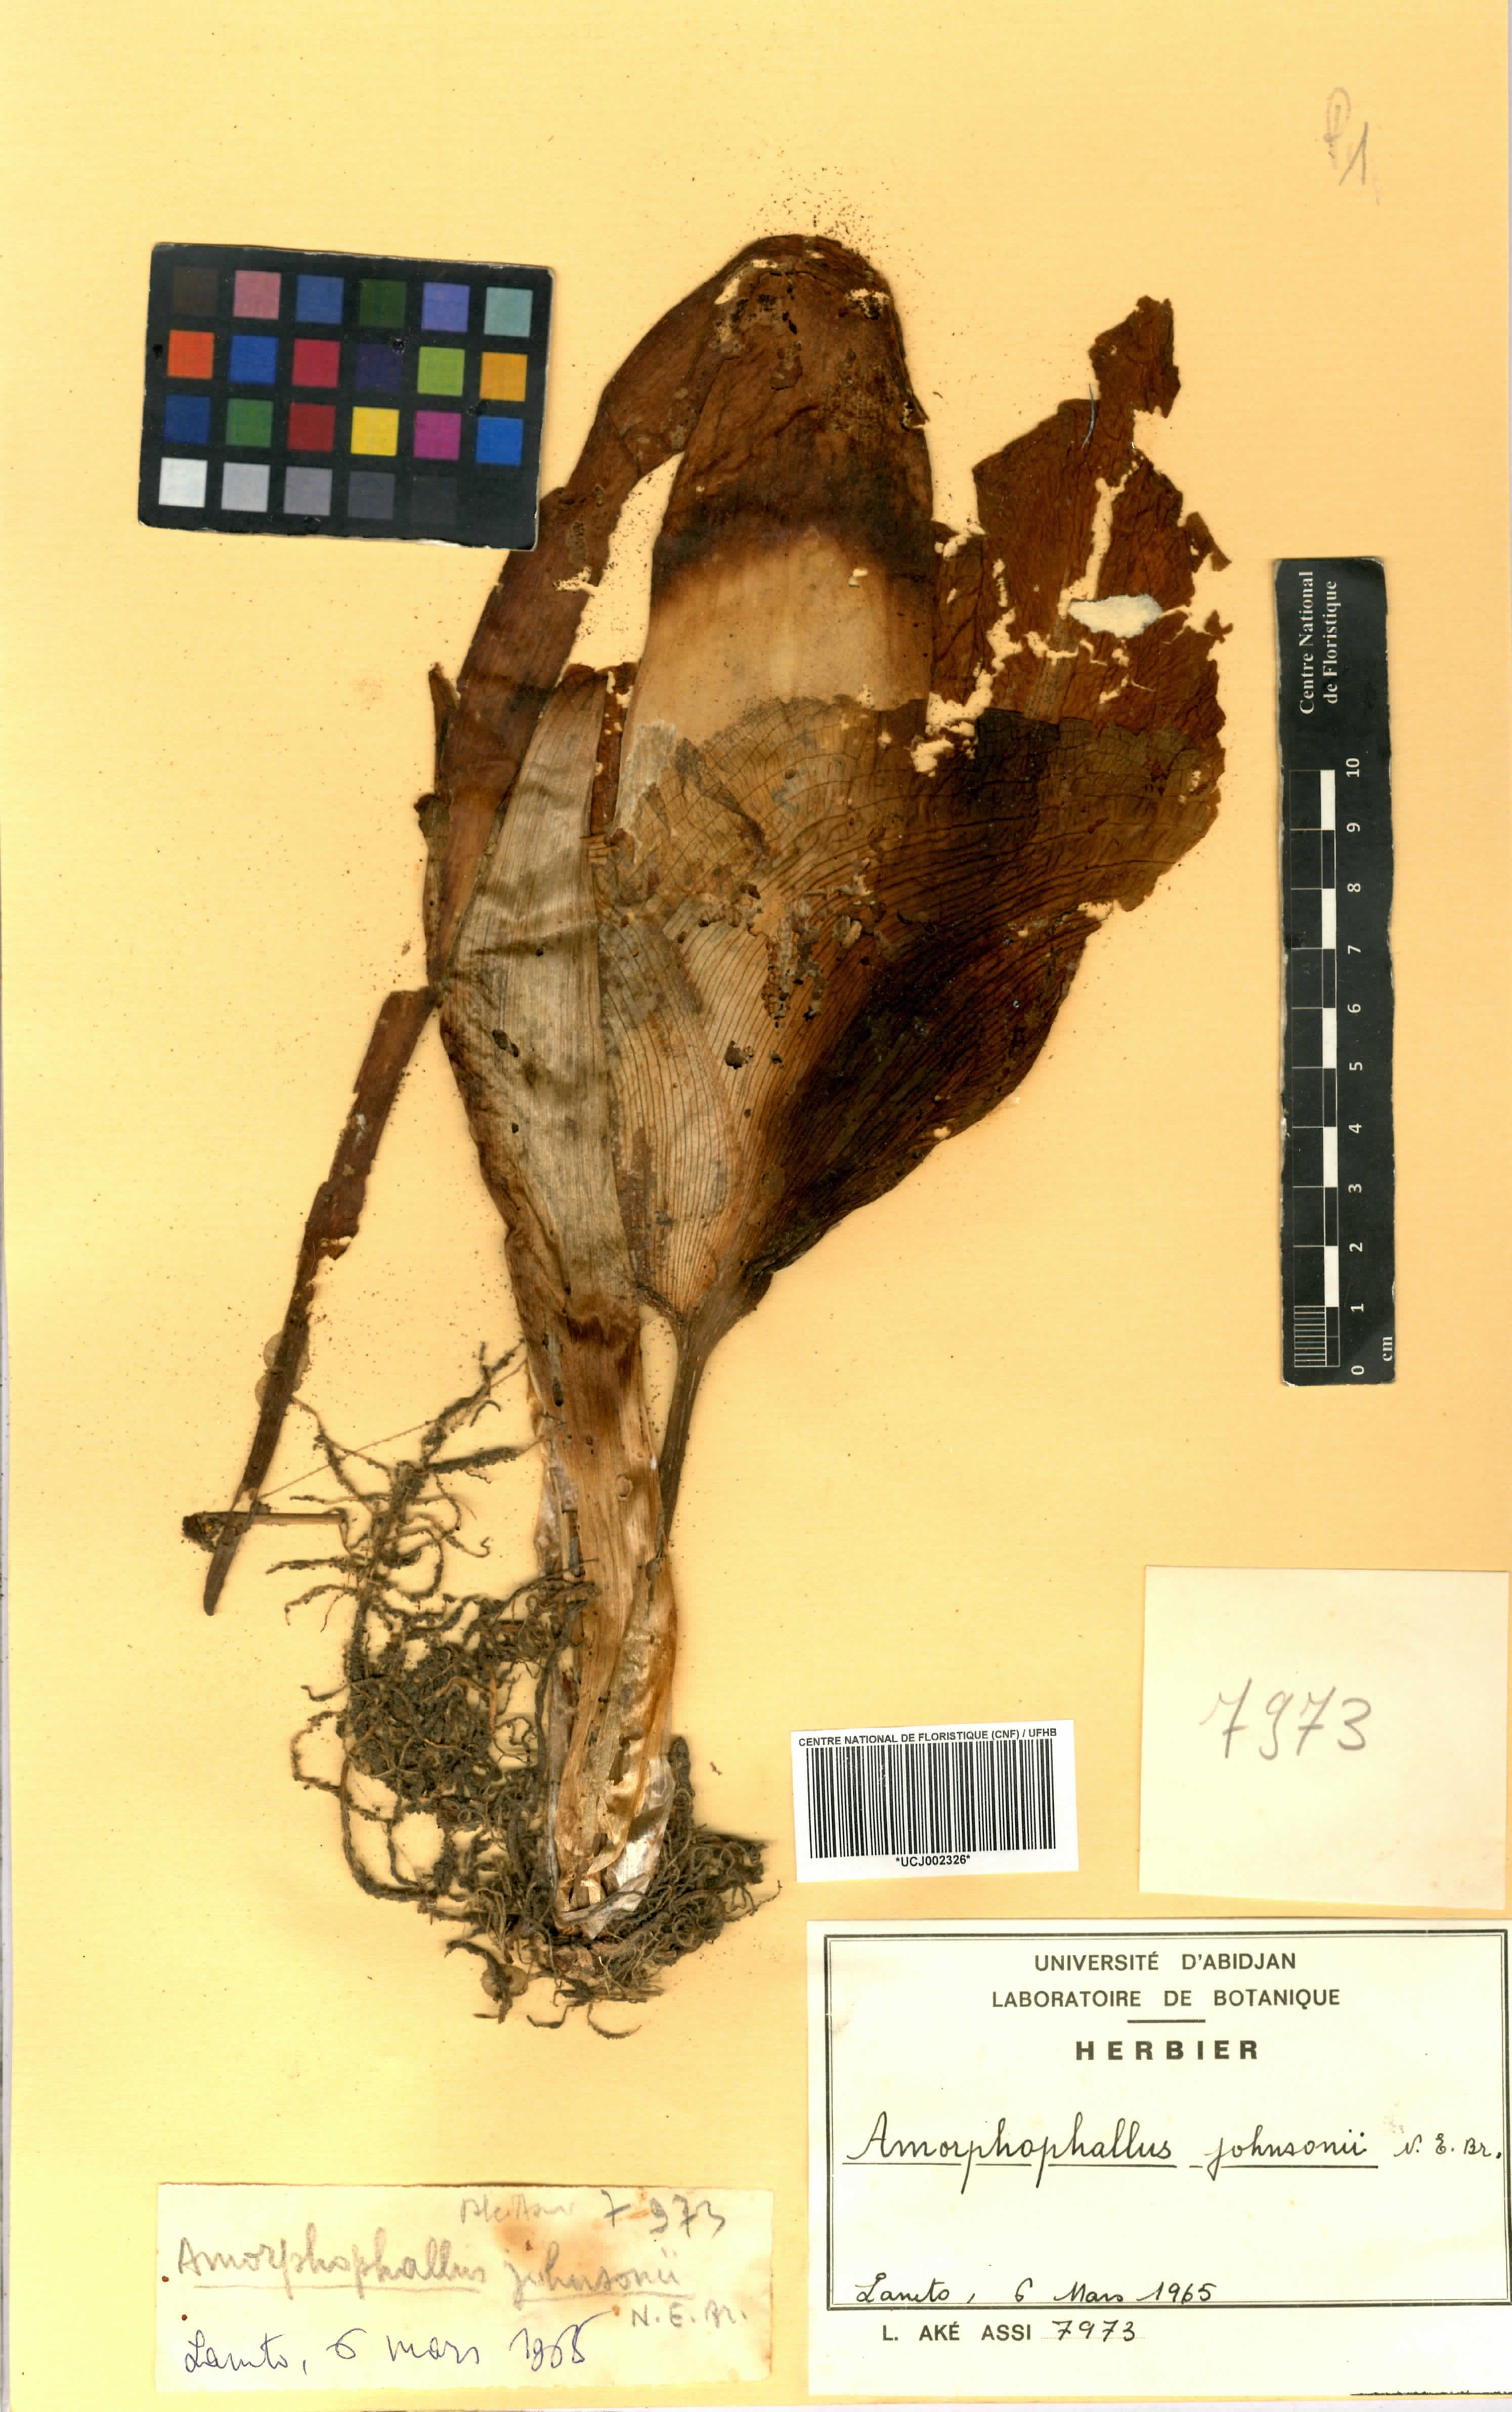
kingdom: Plantae
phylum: Tracheophyta
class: Liliopsida
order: Alismatales
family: Araceae
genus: Amorphophallus
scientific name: Amorphophallus johnsonii
